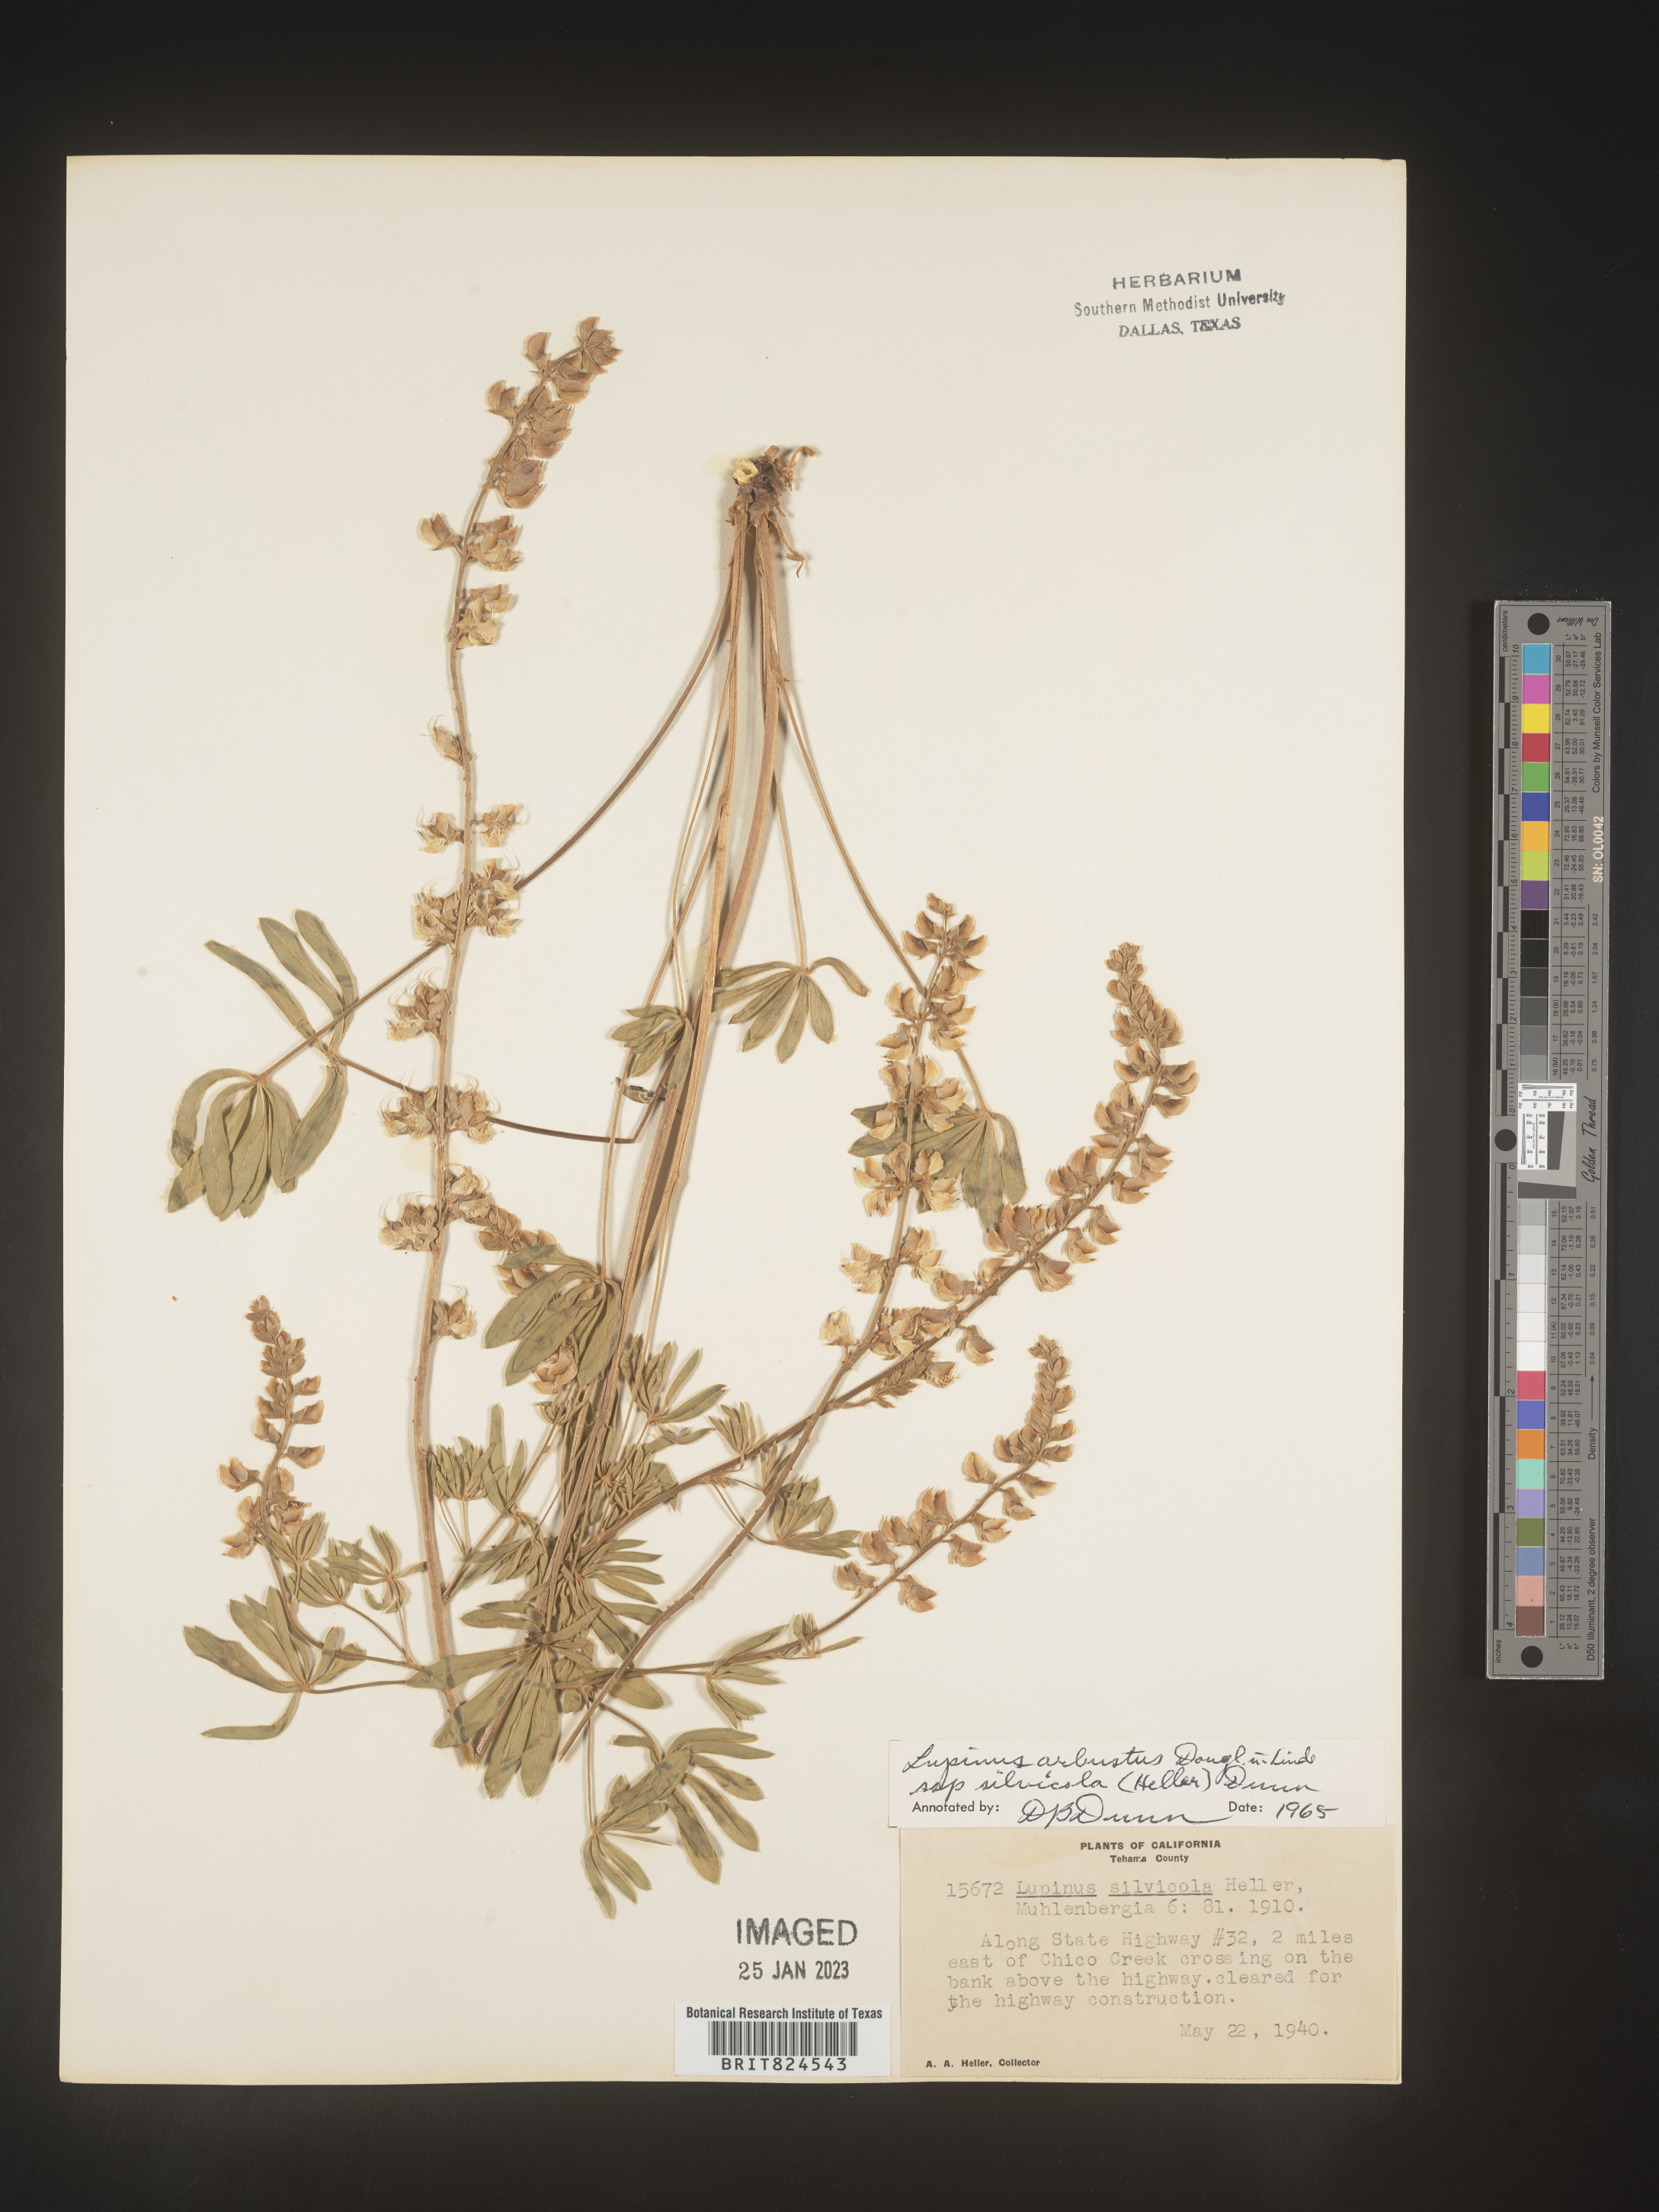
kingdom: Plantae
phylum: Tracheophyta
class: Magnoliopsida
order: Fabales
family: Fabaceae
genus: Lupinus
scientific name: Lupinus arbustus
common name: Montana lupine
